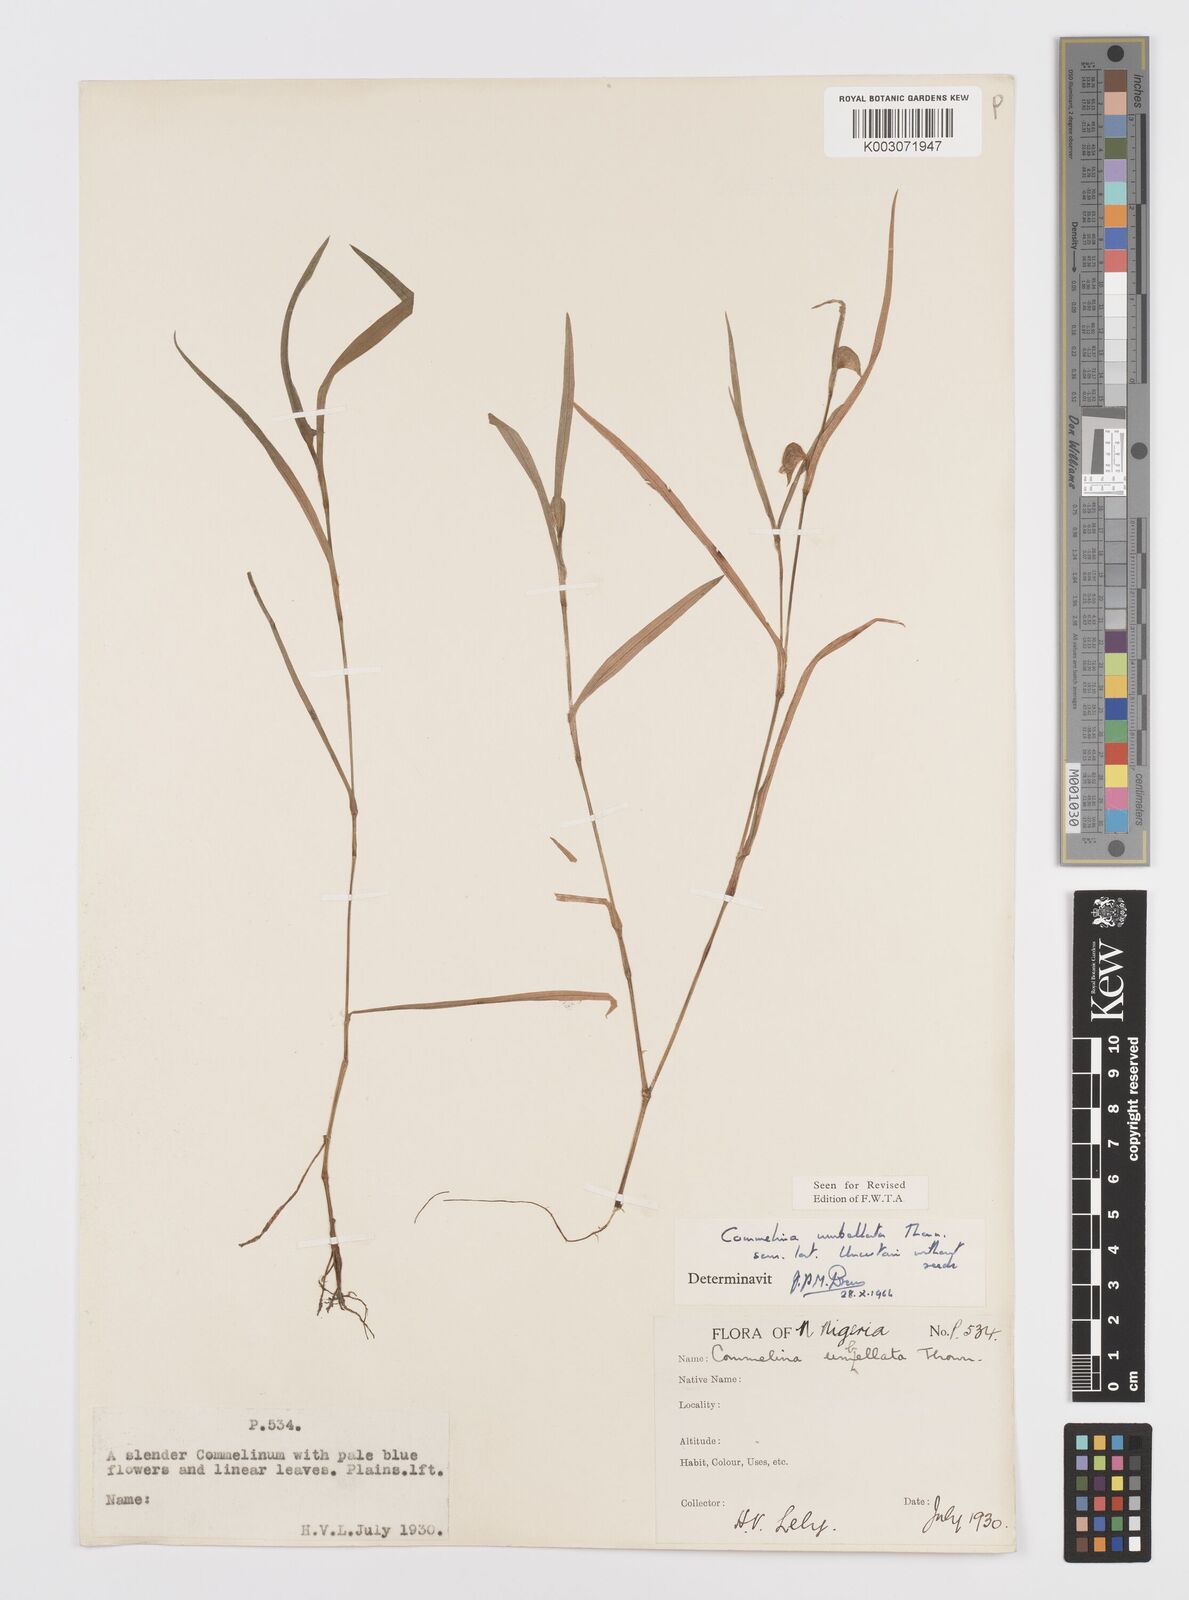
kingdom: Plantae
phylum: Tracheophyta
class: Liliopsida
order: Commelinales
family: Commelinaceae
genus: Commelina
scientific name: Commelina
